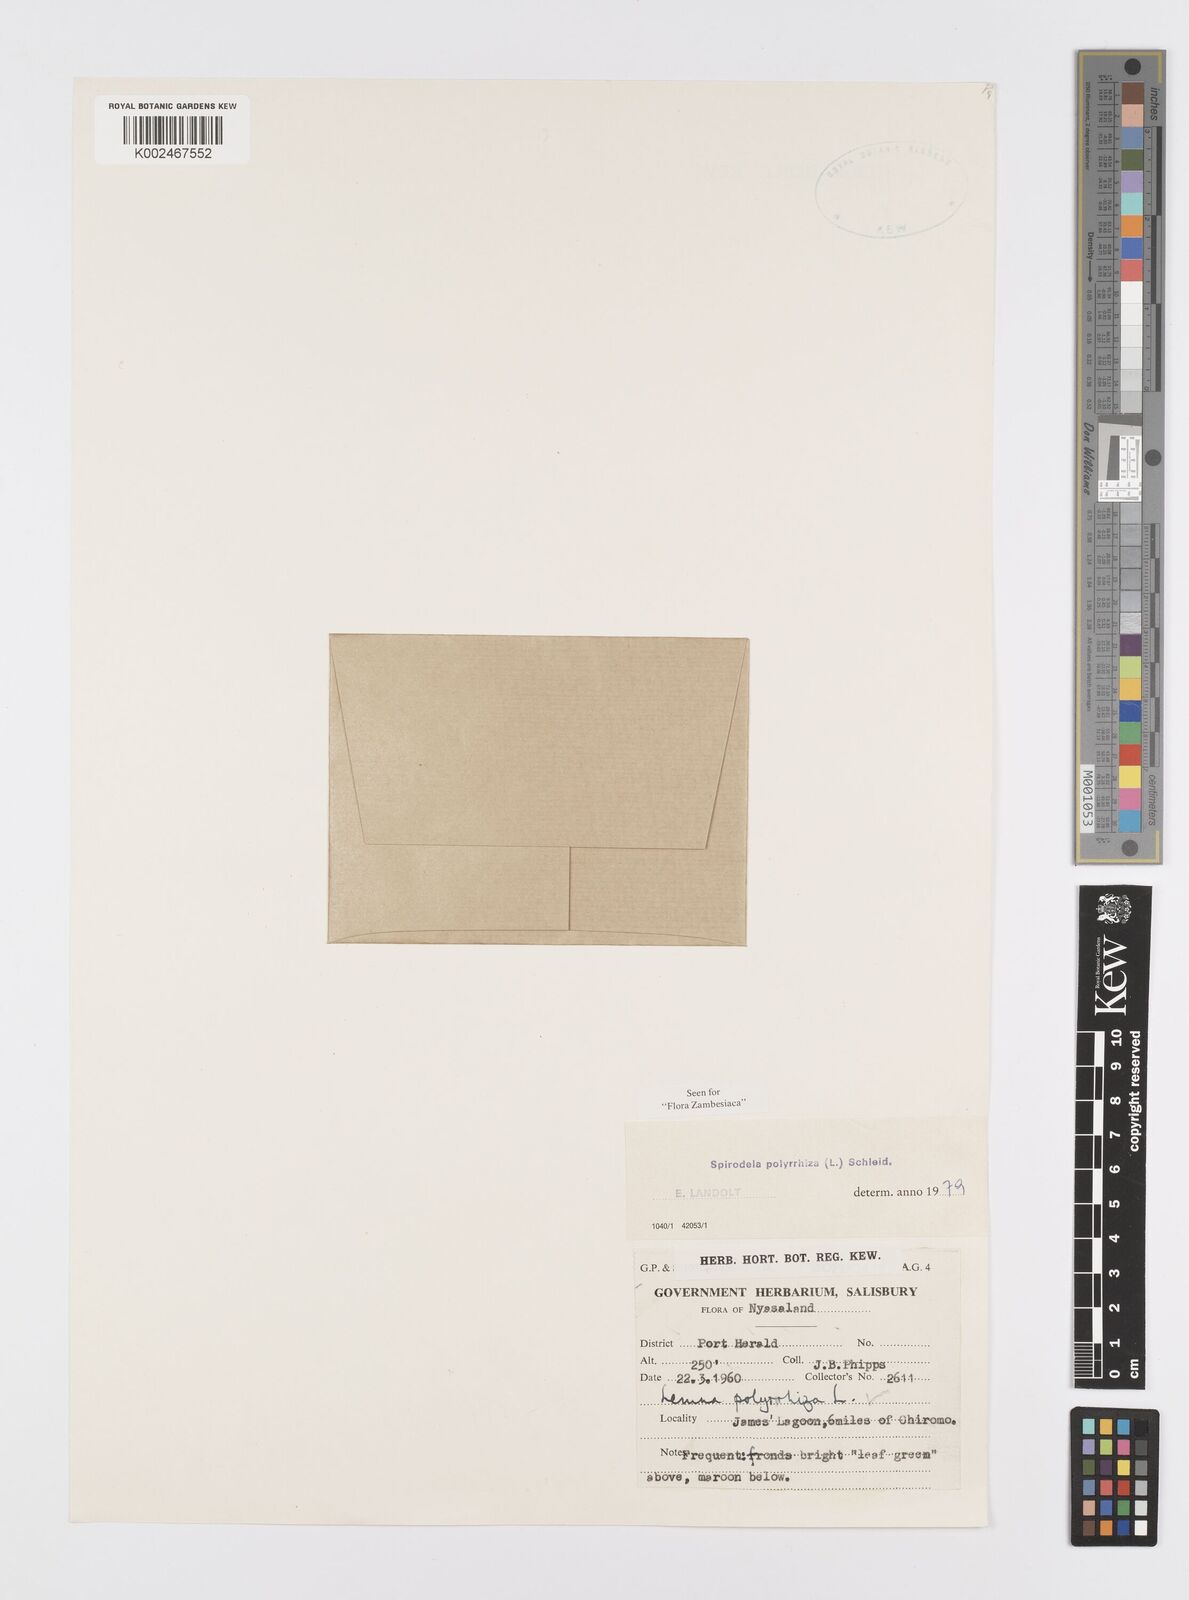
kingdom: Plantae
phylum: Tracheophyta
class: Liliopsida
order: Alismatales
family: Araceae
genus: Spirodela
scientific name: Spirodela polyrhiza
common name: Great duckweed
